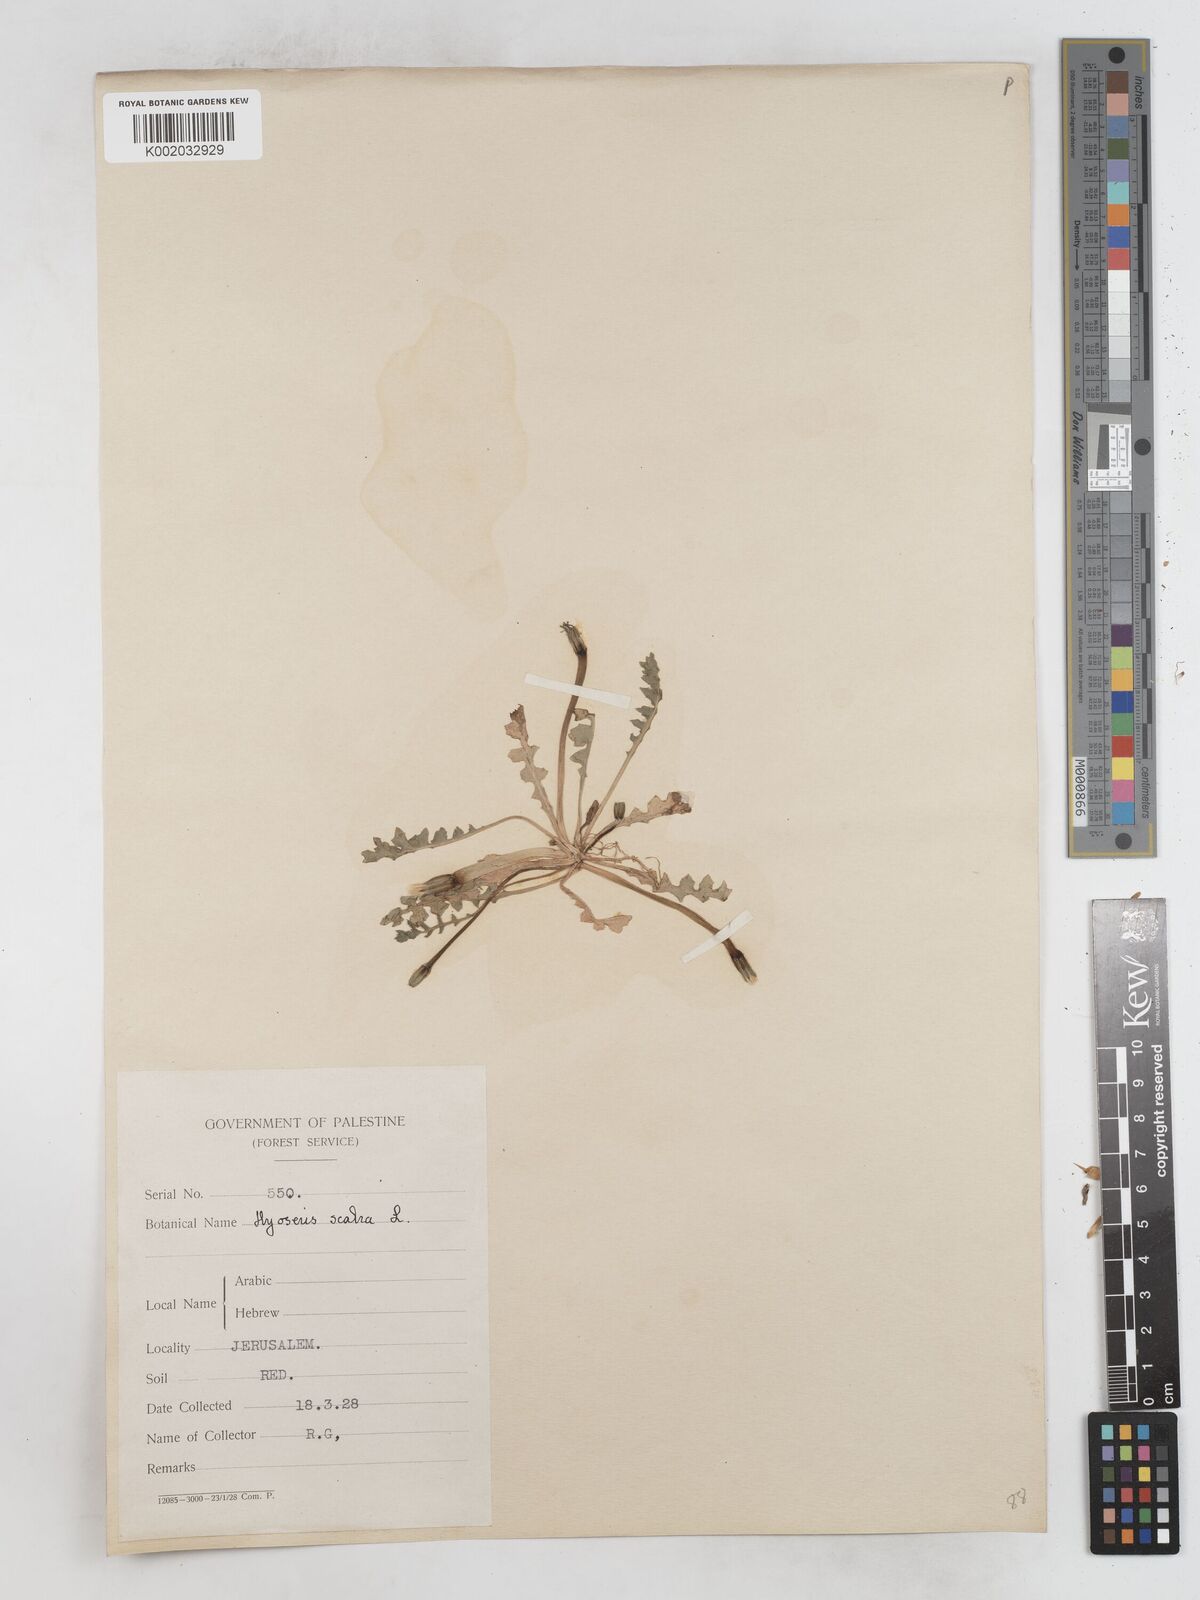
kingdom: Plantae
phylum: Tracheophyta
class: Magnoliopsida
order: Asterales
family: Asteraceae
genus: Hyoseris
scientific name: Hyoseris scabra
